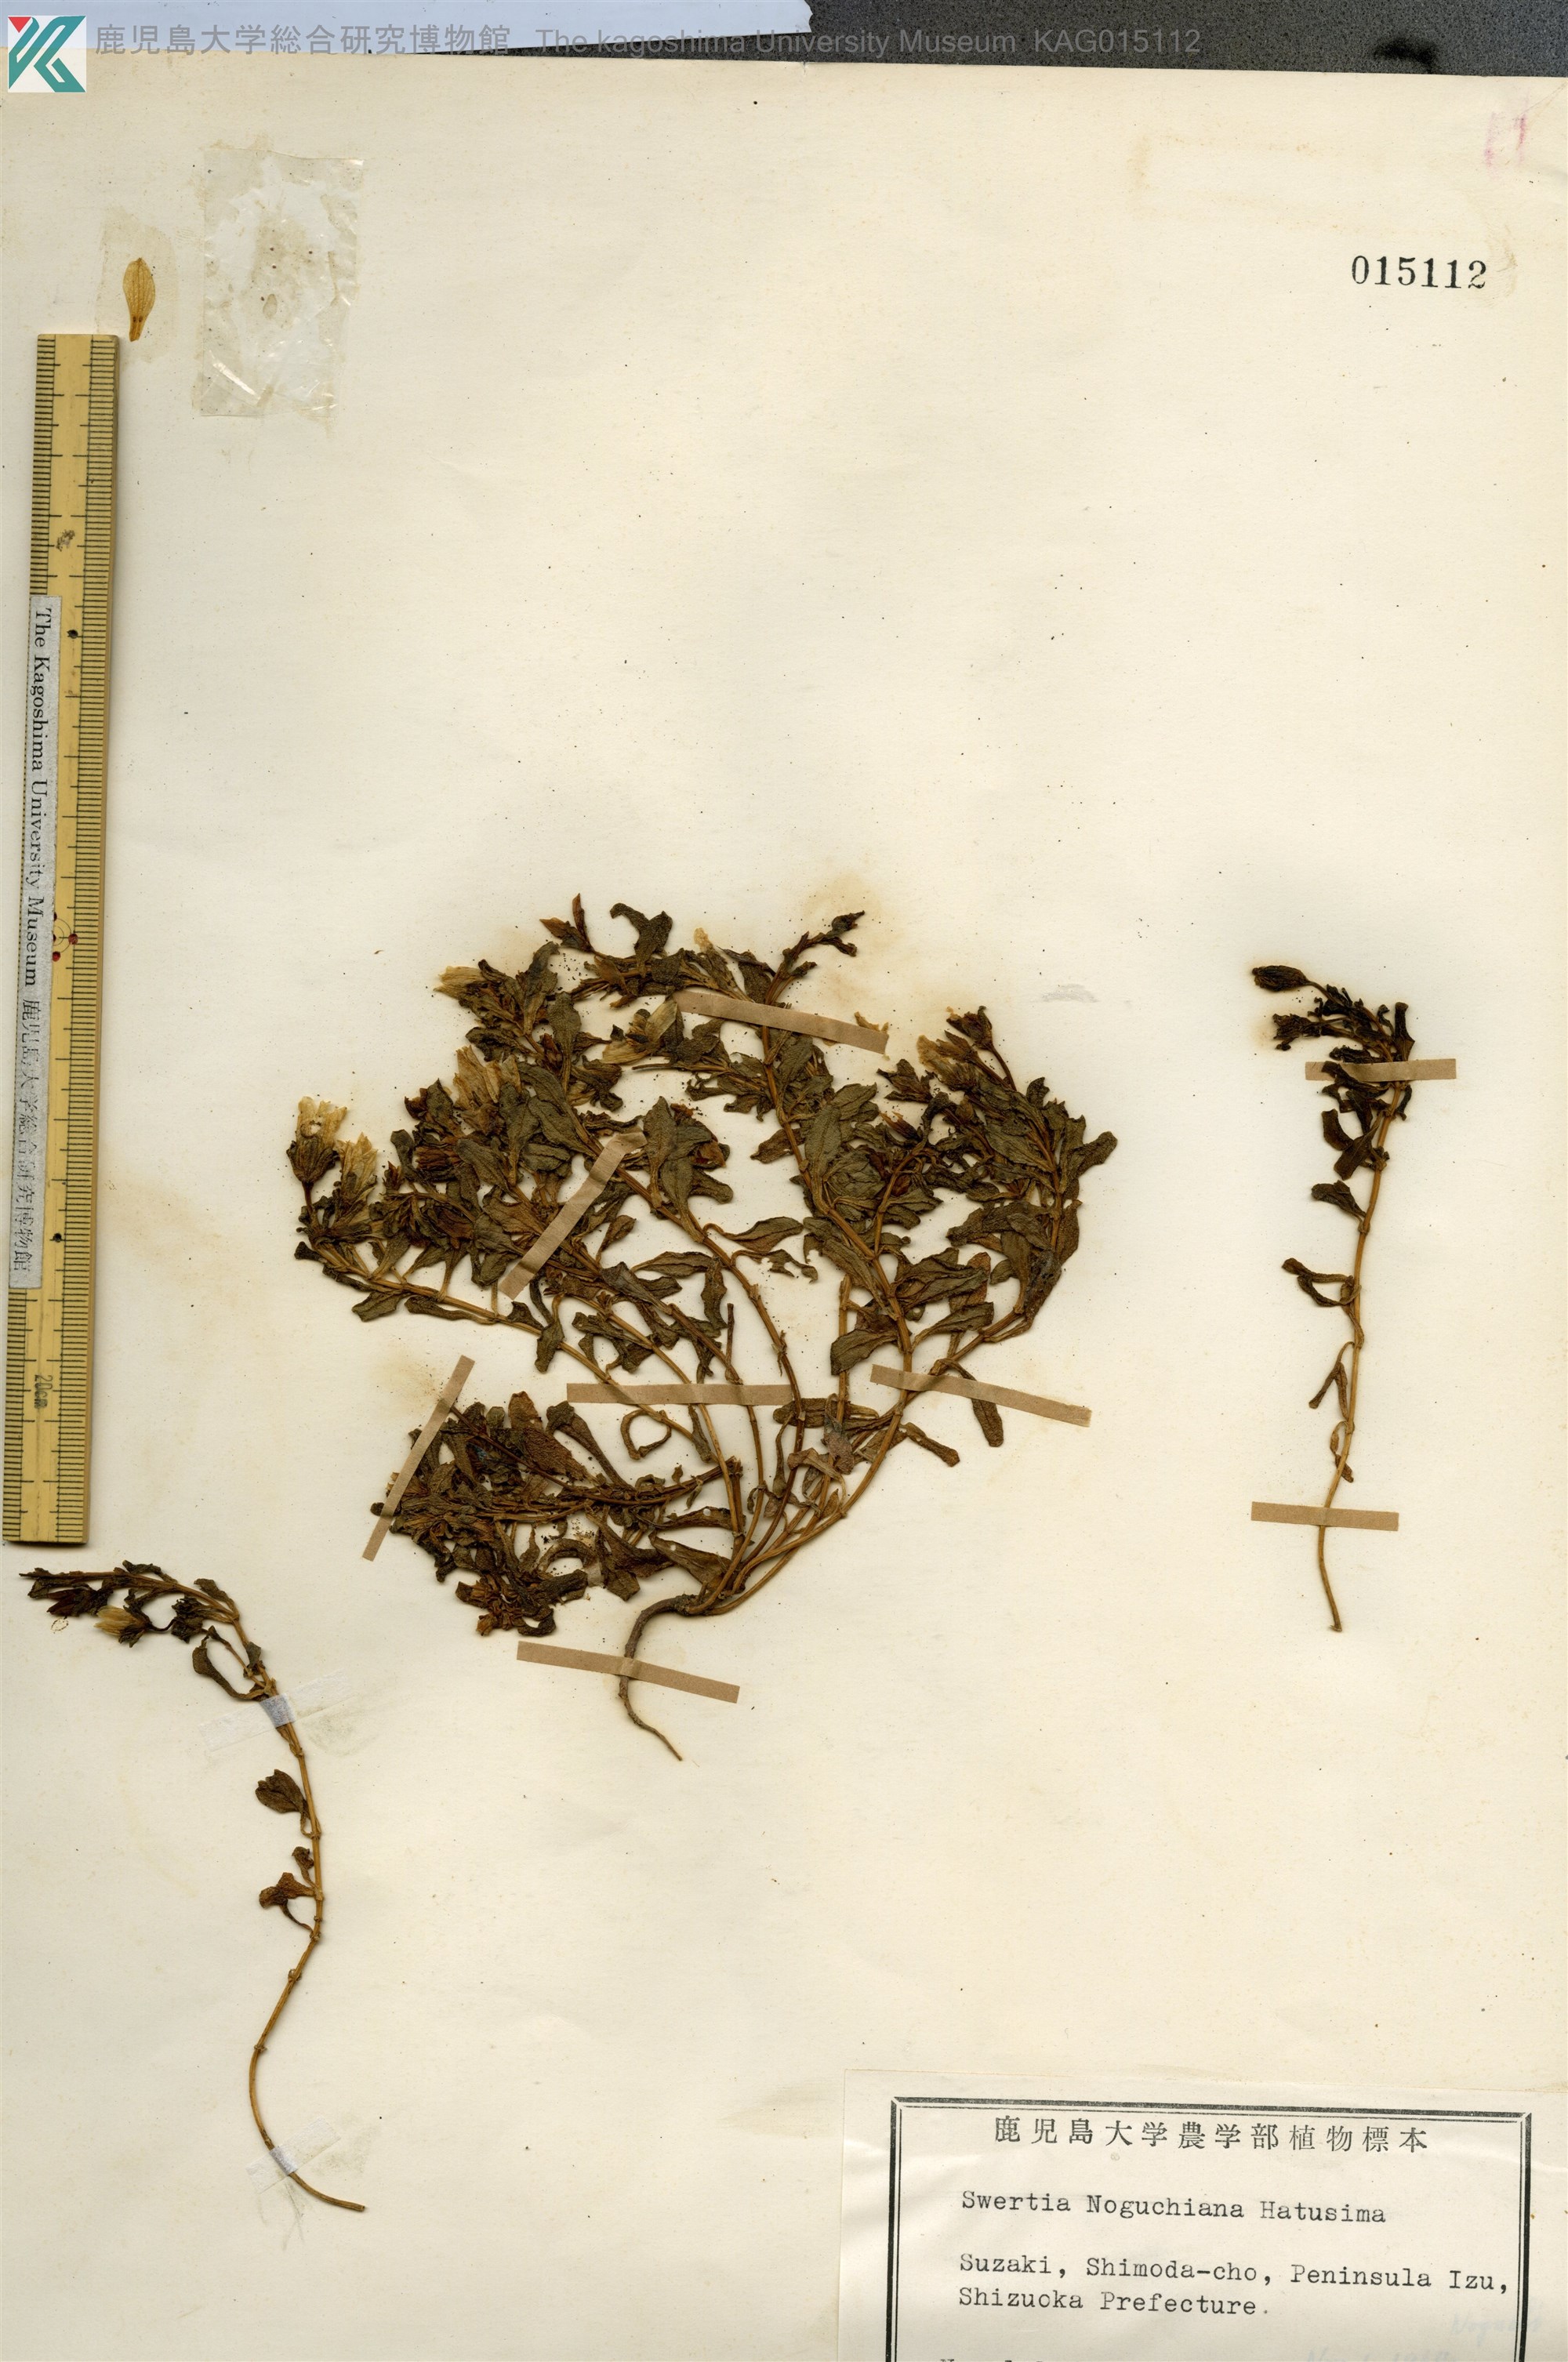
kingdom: Plantae
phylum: Tracheophyta
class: Magnoliopsida
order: Gentianales
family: Gentianaceae
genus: Swertia
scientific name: Swertia noguchiana
